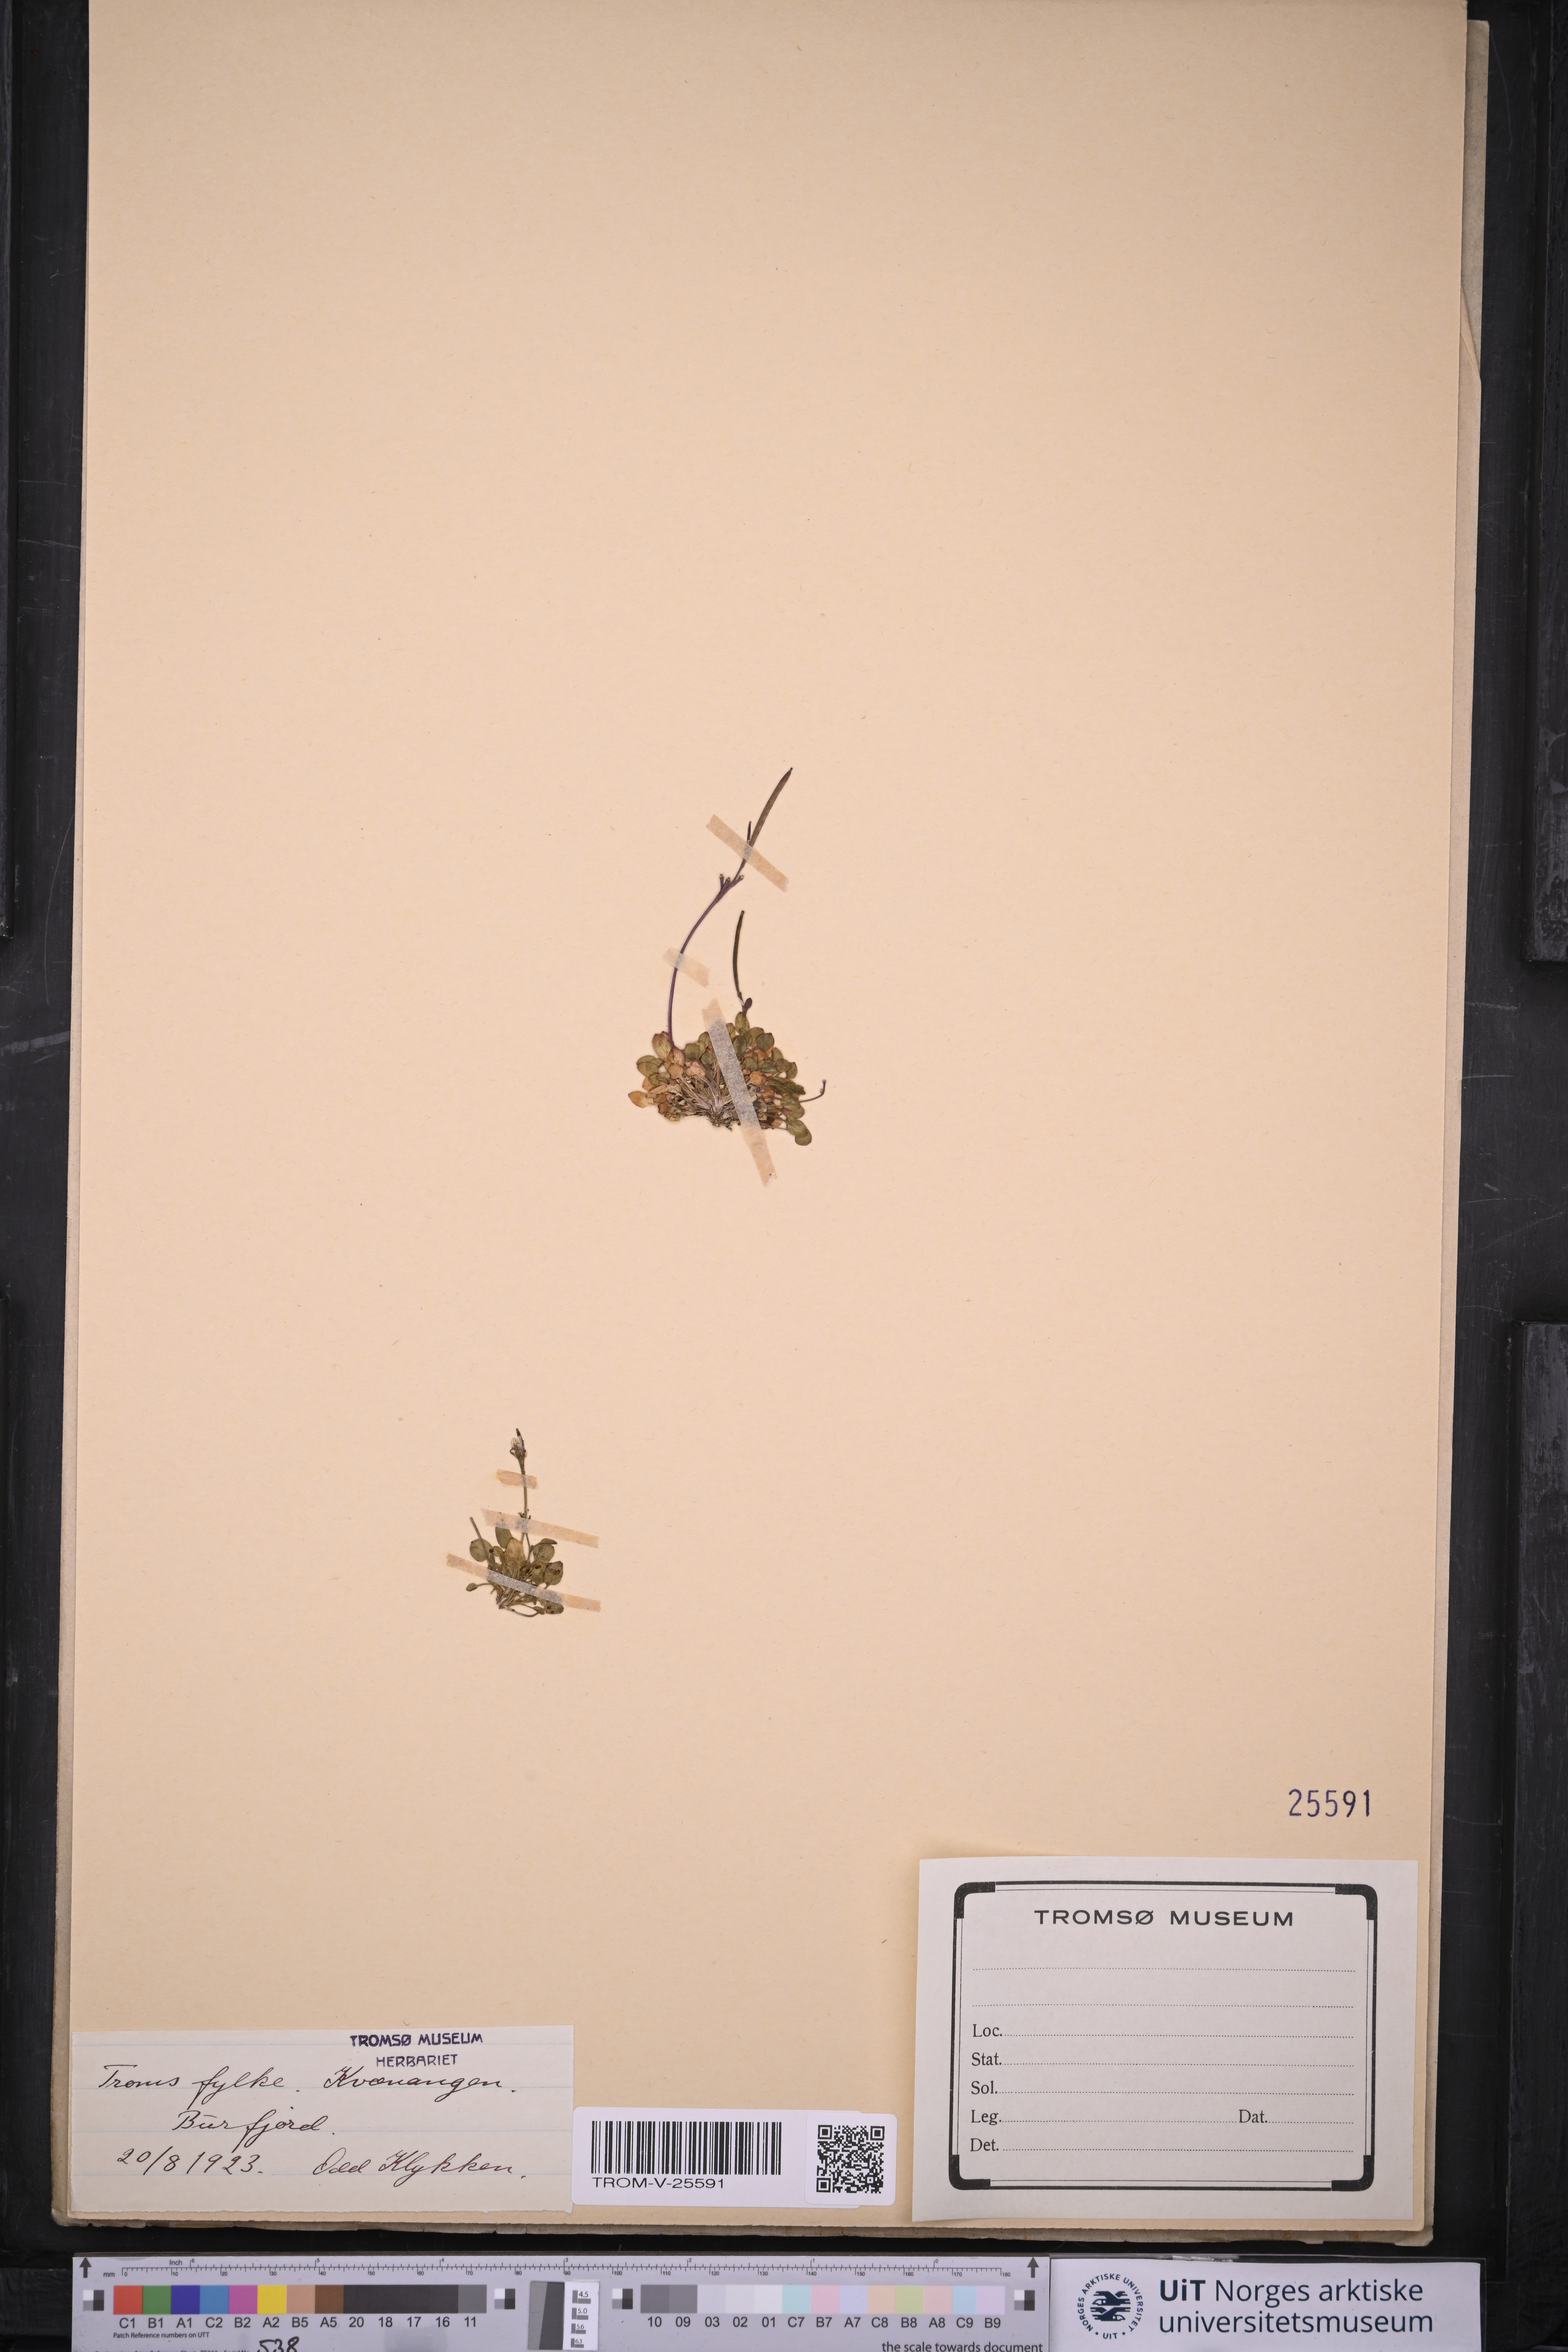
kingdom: Plantae
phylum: Tracheophyta
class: Magnoliopsida
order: Brassicales
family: Brassicaceae
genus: Cardamine
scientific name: Cardamine bellidifolia
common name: Alpine bittercress
